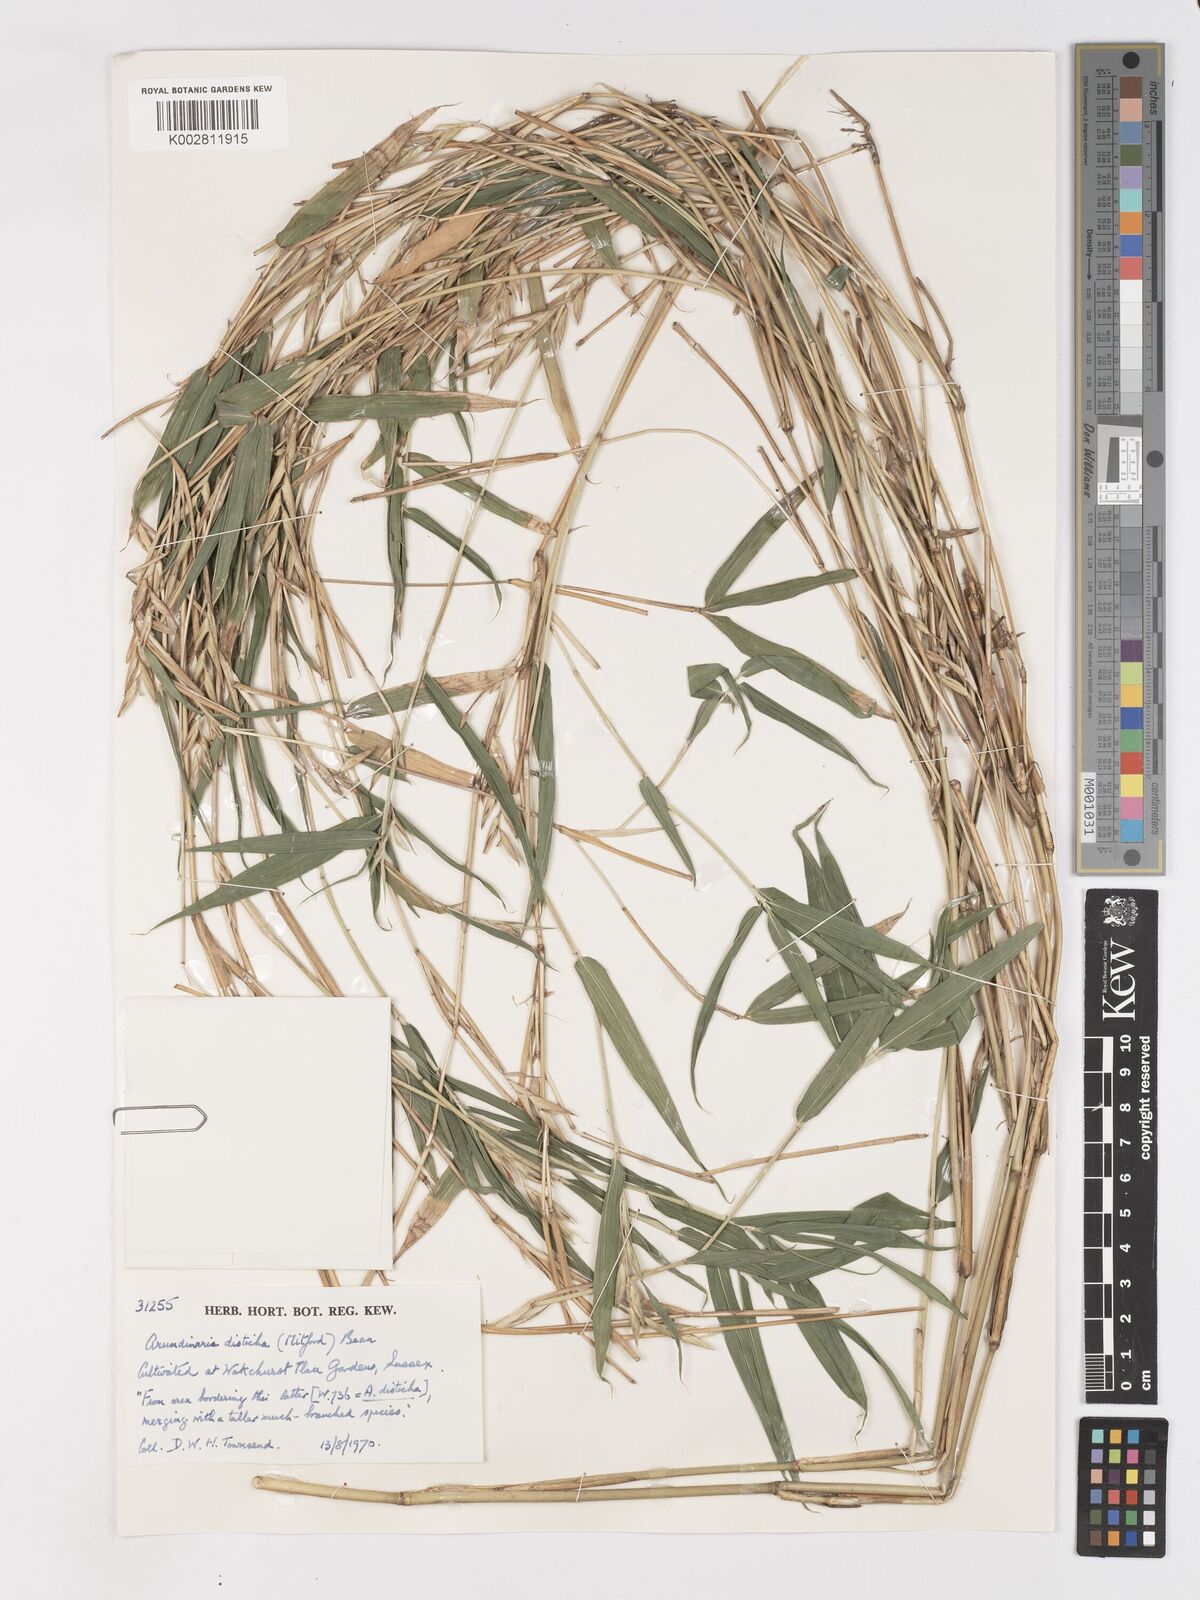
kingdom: Plantae
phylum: Tracheophyta
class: Liliopsida
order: Poales
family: Poaceae
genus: Pleioblastus
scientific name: Pleioblastus distichus
